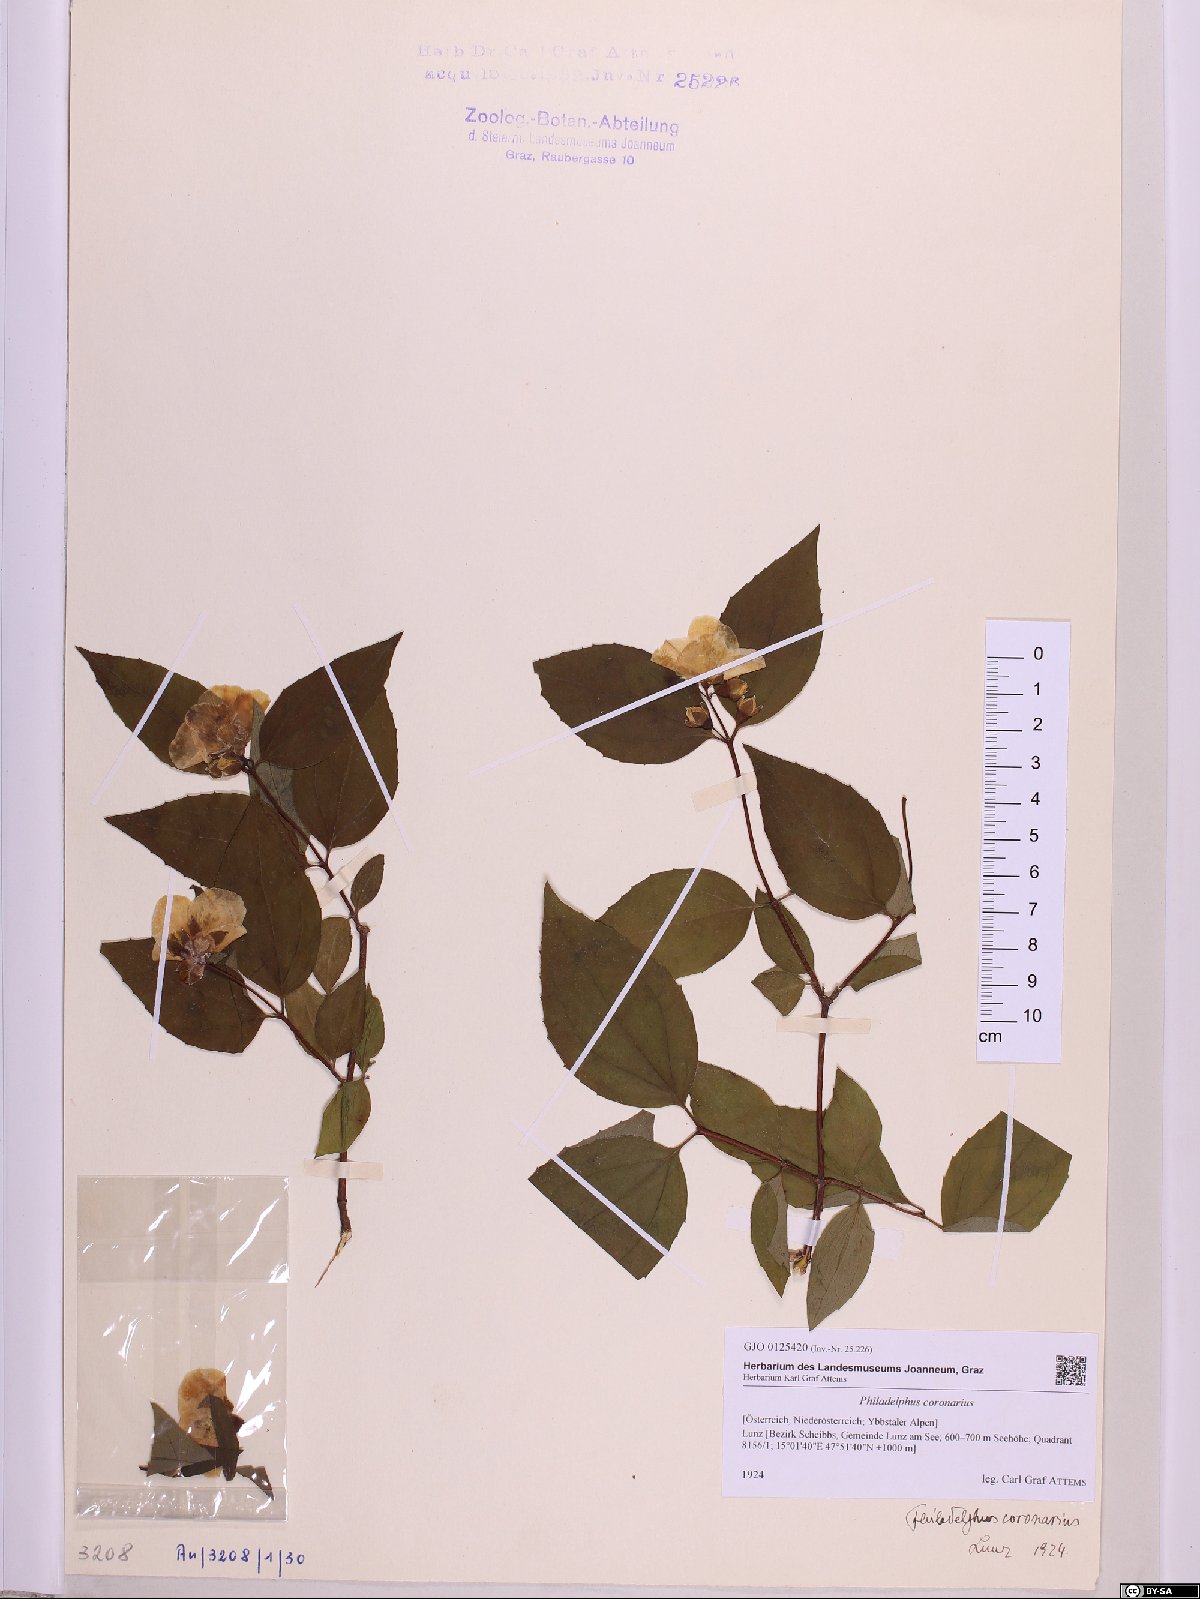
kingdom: Plantae
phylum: Tracheophyta
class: Magnoliopsida
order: Cornales
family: Hydrangeaceae
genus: Philadelphus
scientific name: Philadelphus coronarius
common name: Mock orange
